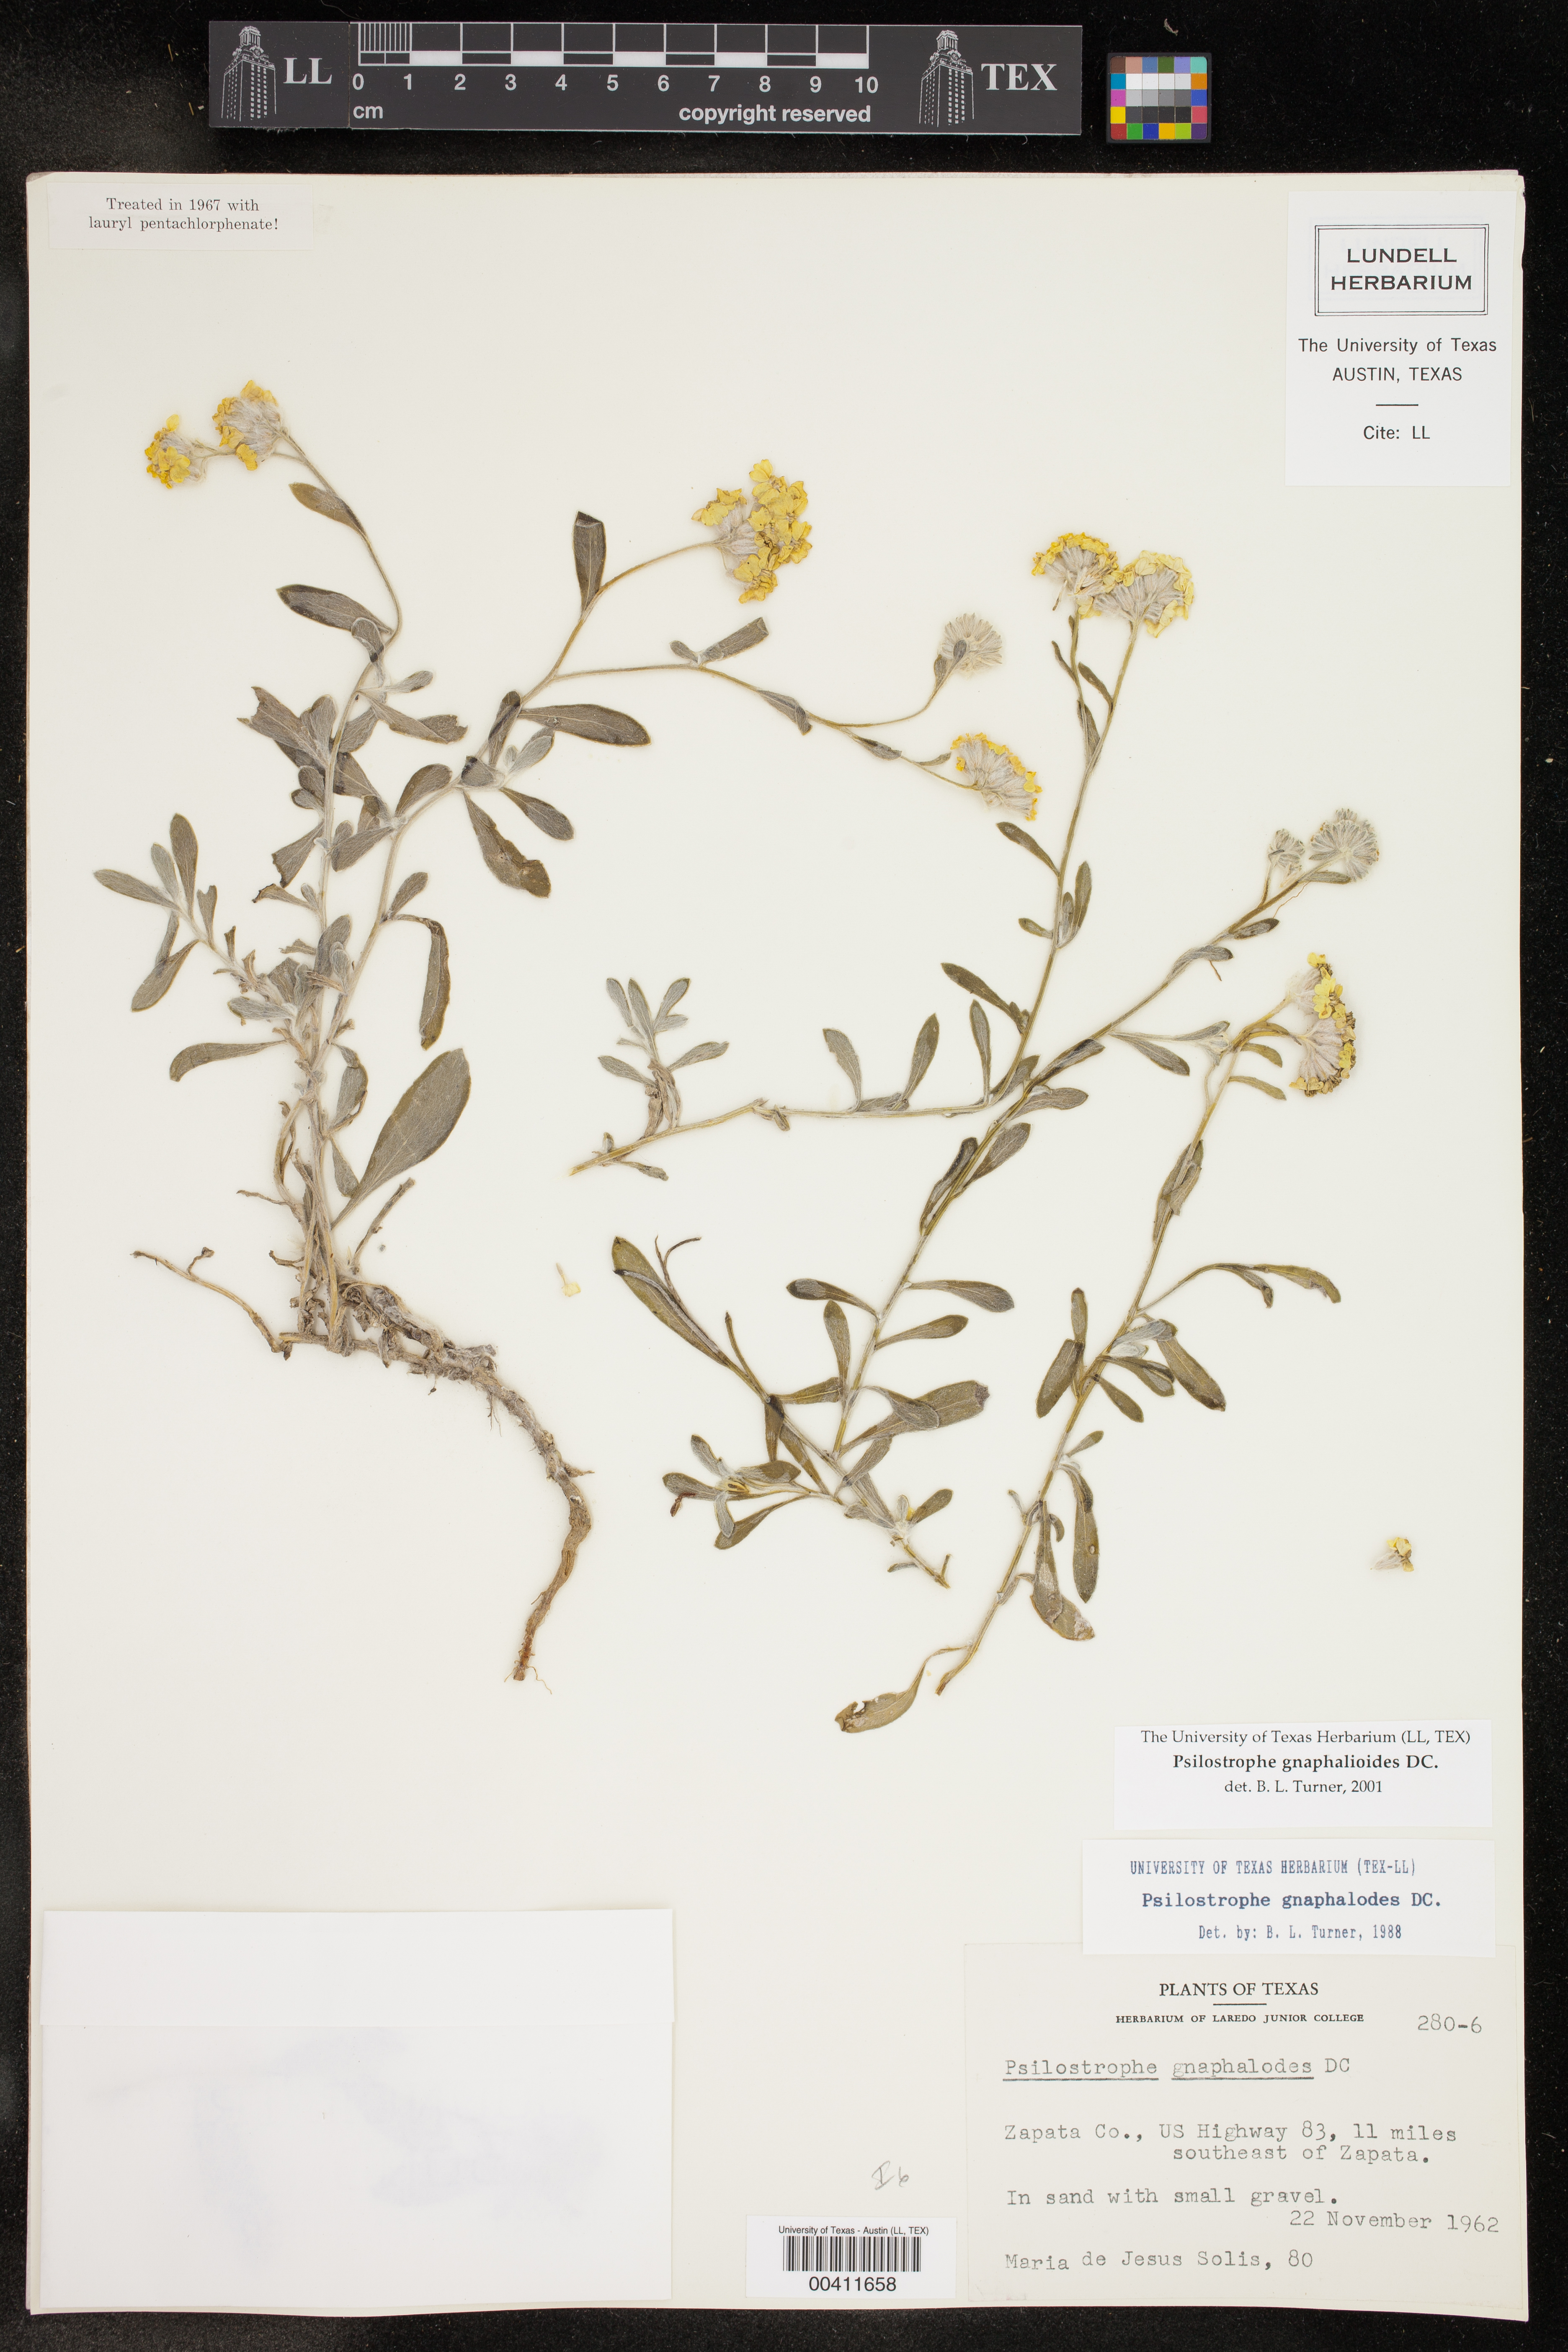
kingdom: Plantae
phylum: Tracheophyta
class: Magnoliopsida
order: Asterales
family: Asteraceae
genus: Psilostrophe
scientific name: Psilostrophe gnaphalioides
